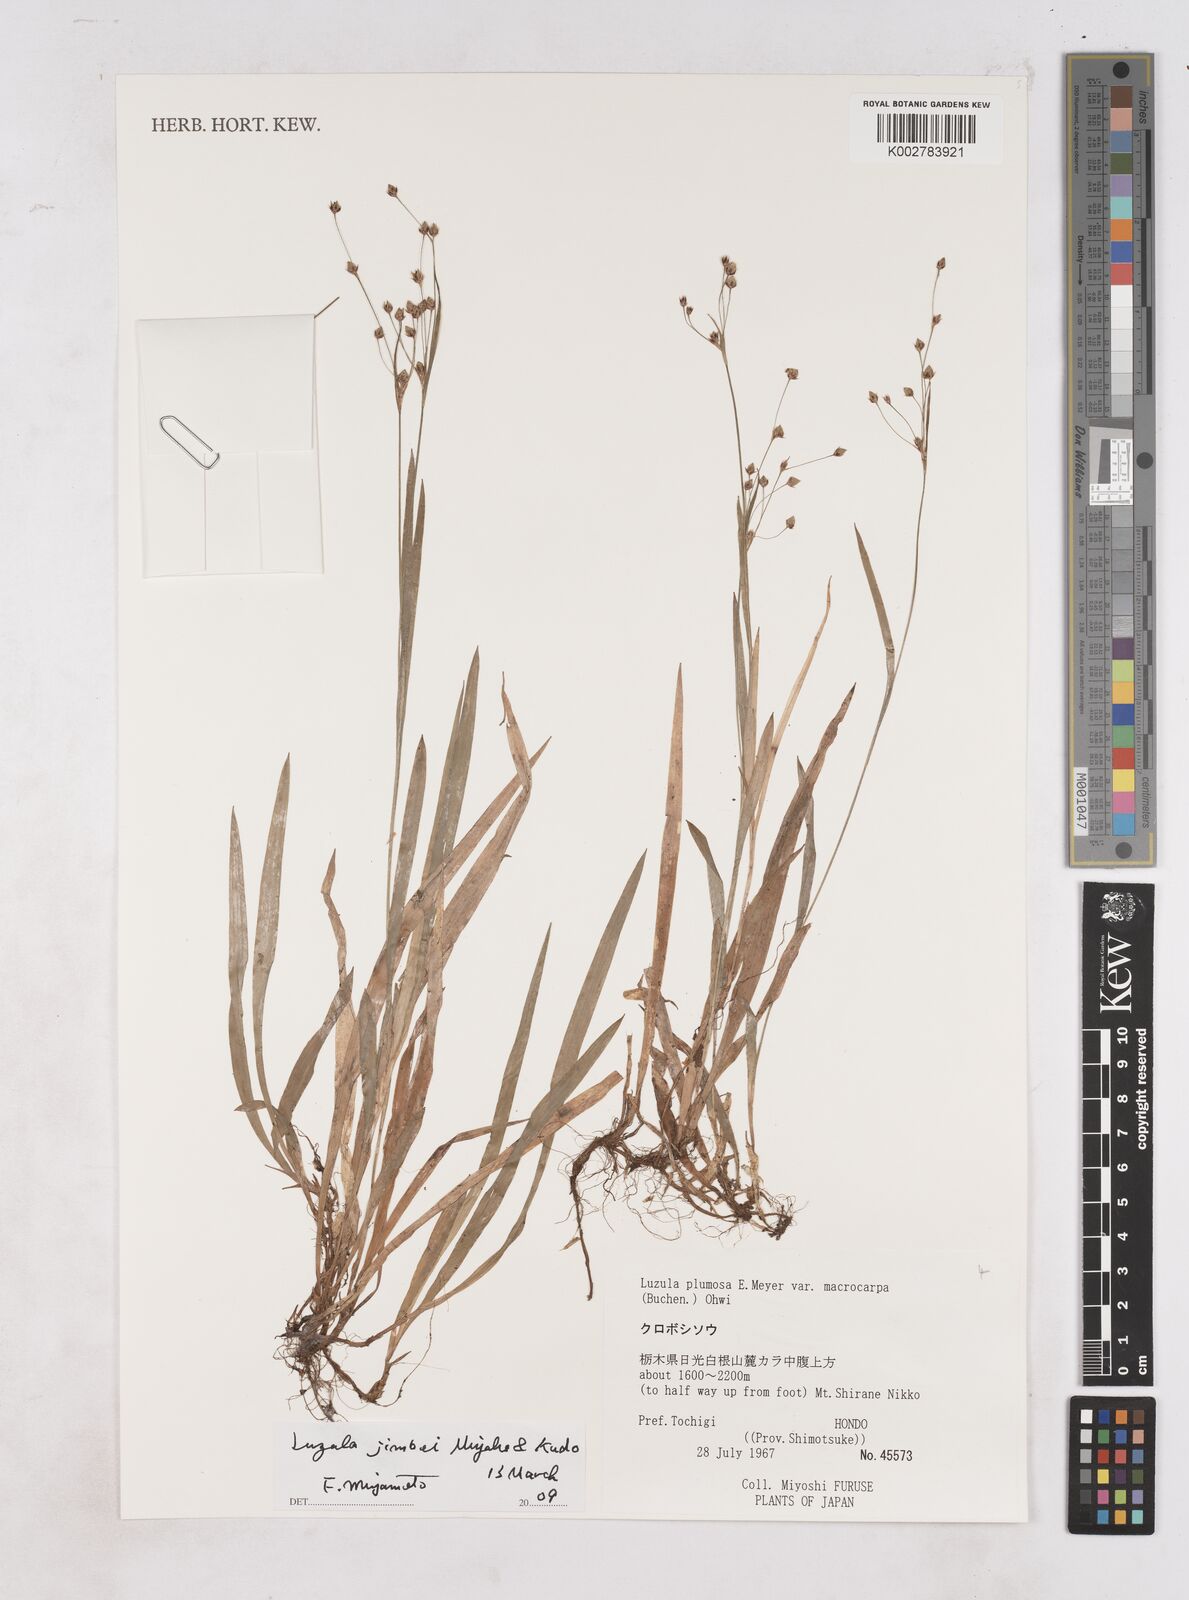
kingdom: Plantae
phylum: Tracheophyta
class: Liliopsida
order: Poales
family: Juncaceae
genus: Luzula
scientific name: Luzula plumosa
